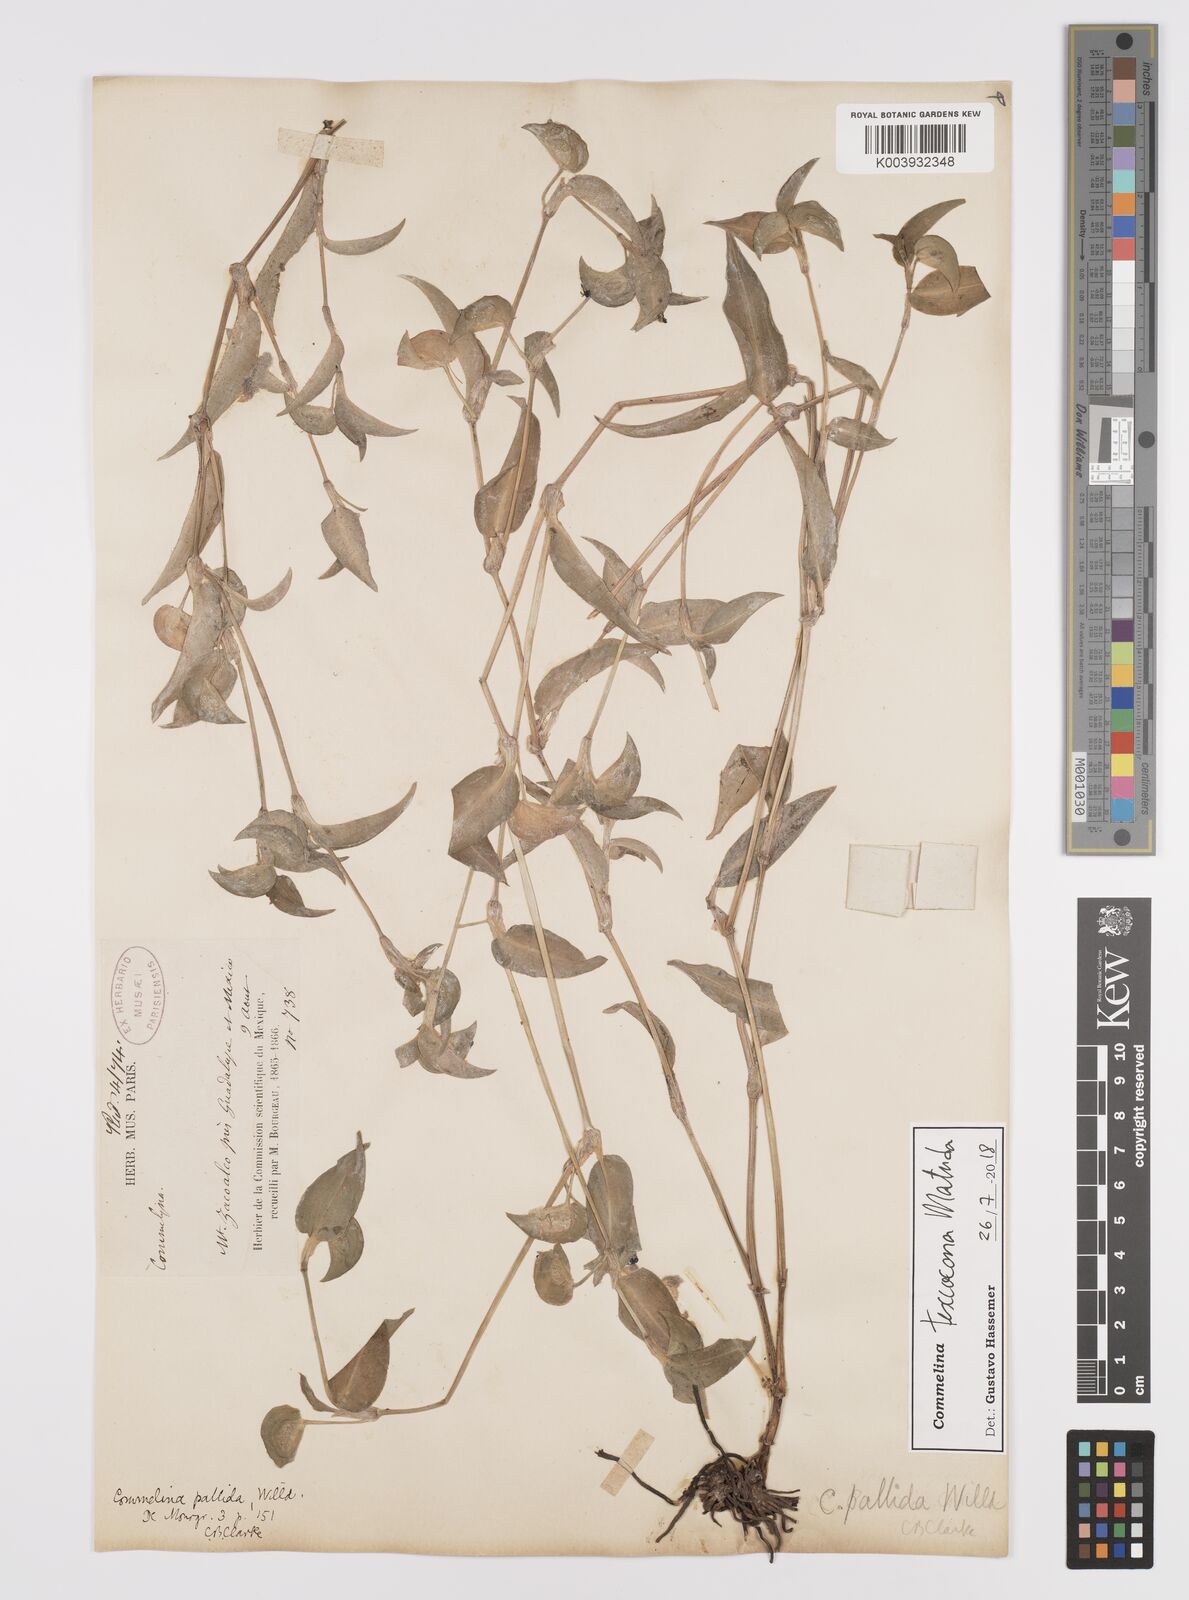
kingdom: Plantae
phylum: Tracheophyta
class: Liliopsida
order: Commelinales
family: Commelinaceae
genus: Commelina
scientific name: Commelina texcocana
